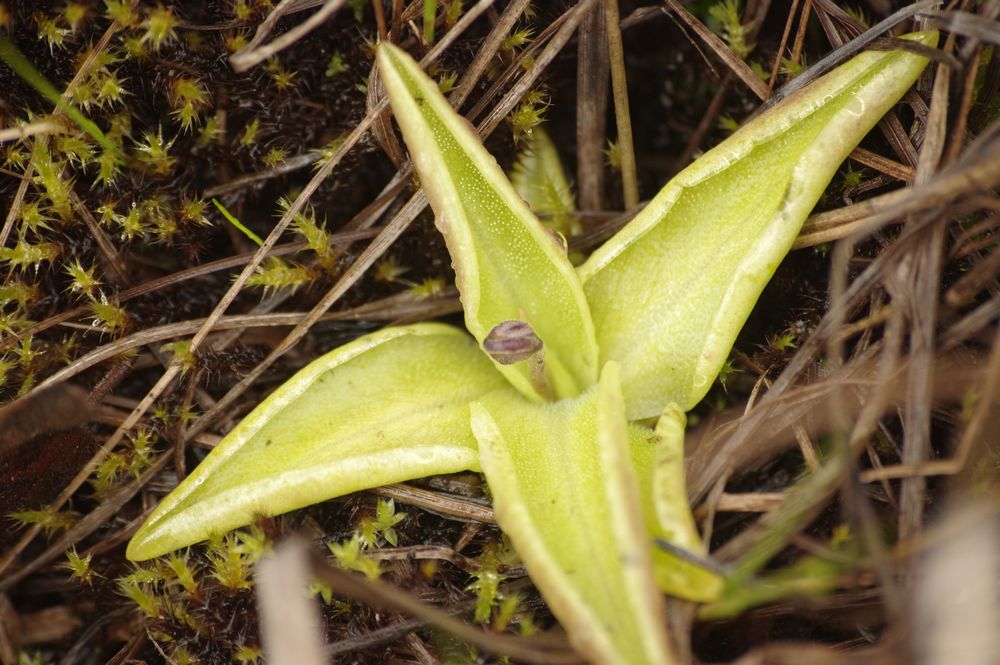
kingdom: Plantae
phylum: Tracheophyta
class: Magnoliopsida
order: Lamiales
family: Lentibulariaceae
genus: Pinguicula
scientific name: Pinguicula vulgaris
